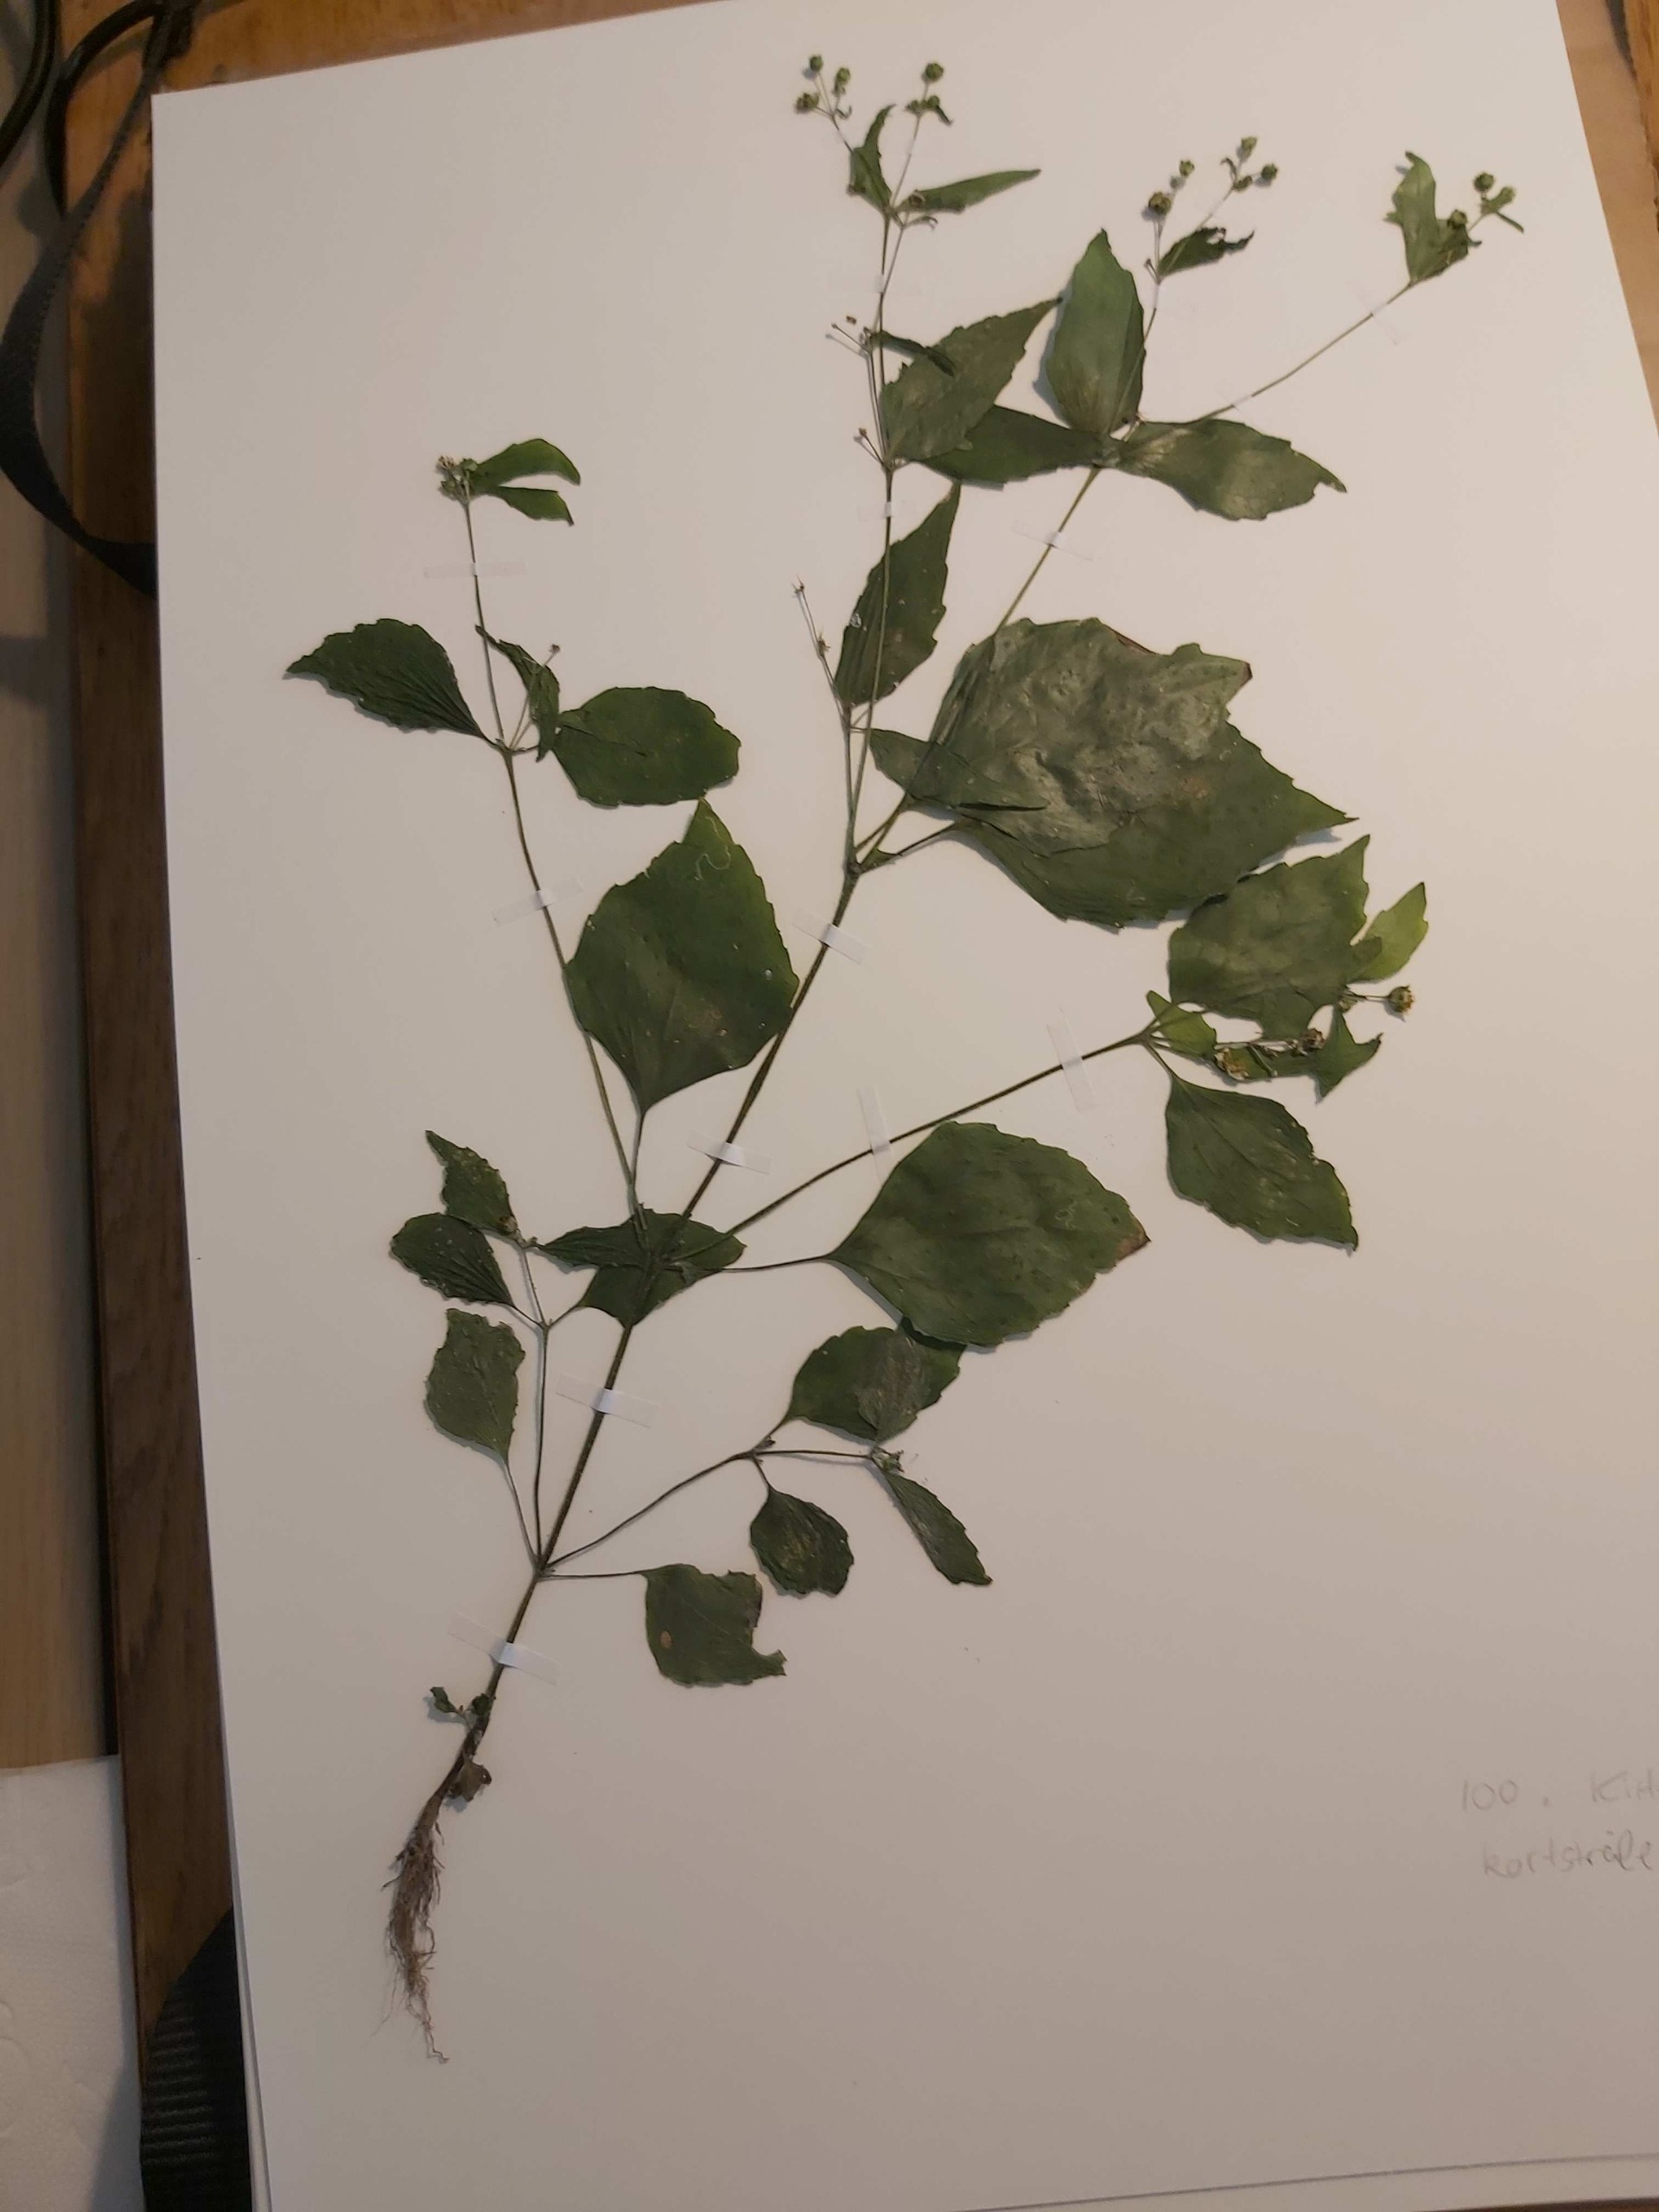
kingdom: Plantae
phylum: Tracheophyta
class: Magnoliopsida
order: Asterales
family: Asteraceae
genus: Galinsoga
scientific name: Galinsoga quadriradiata
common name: Kirtel-kortstråle
